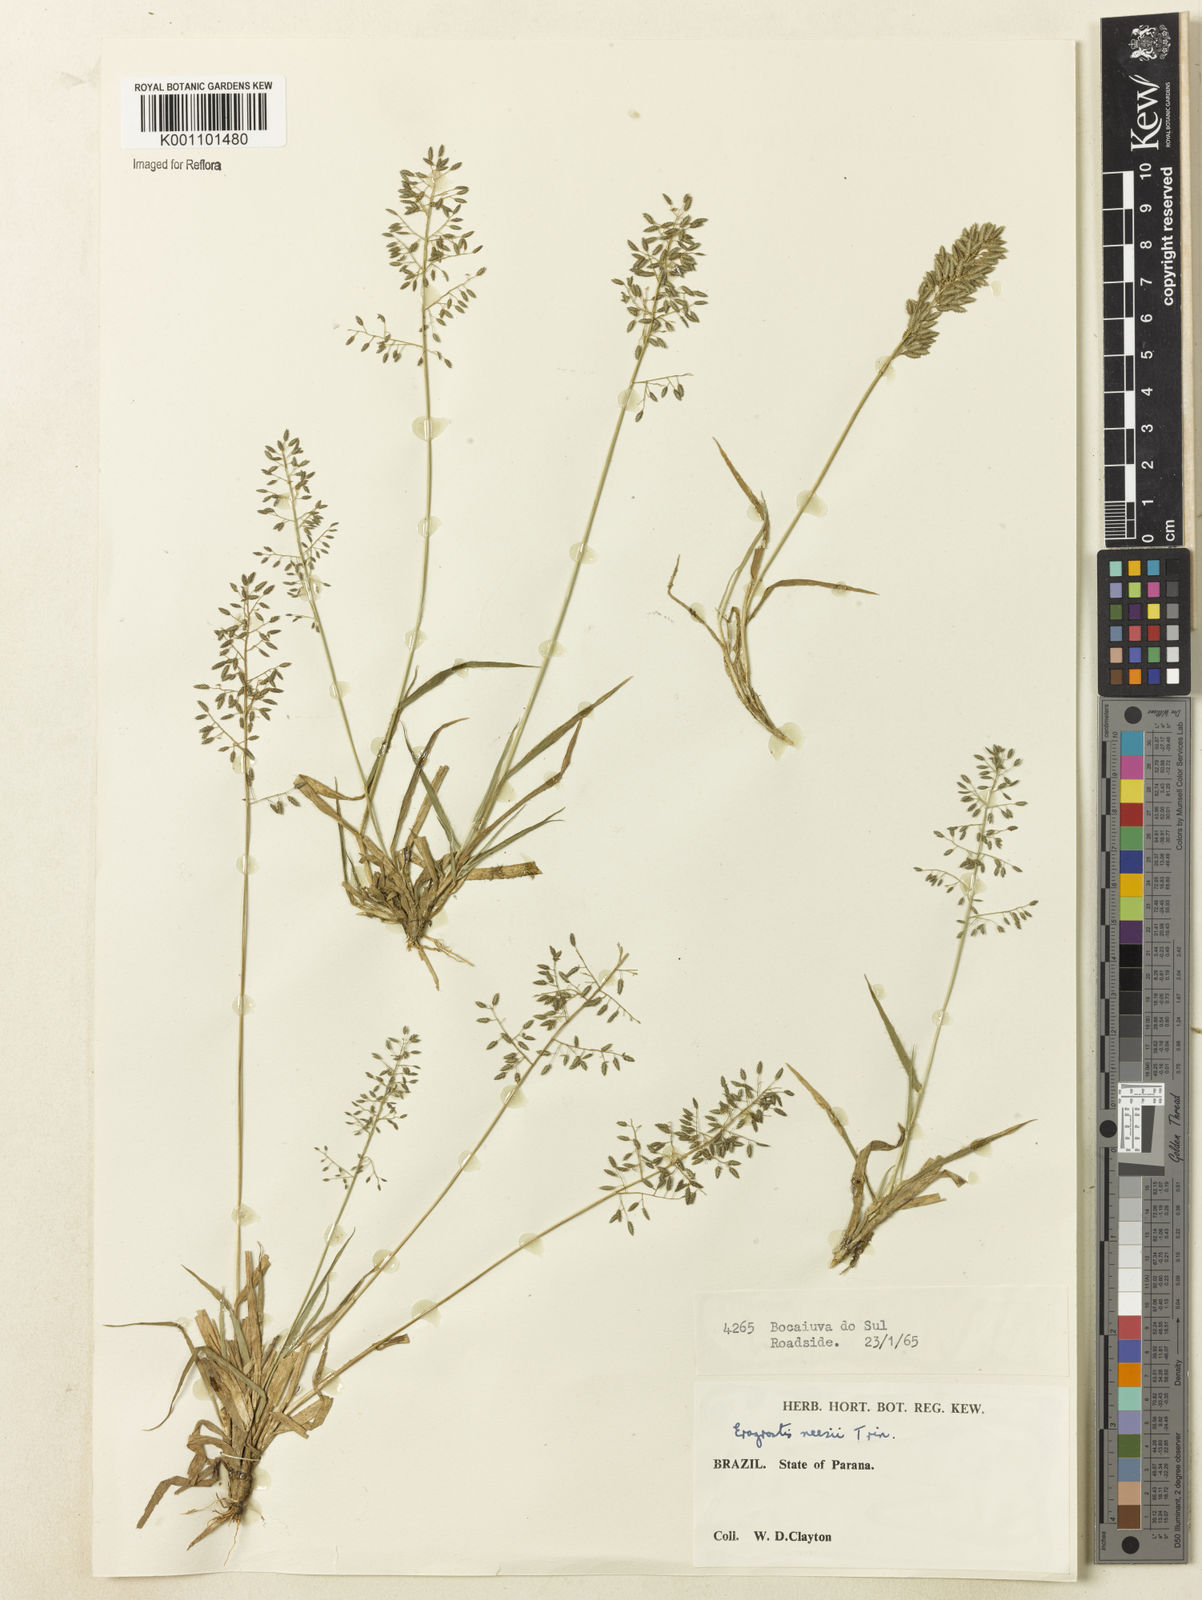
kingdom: Plantae
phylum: Tracheophyta
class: Liliopsida
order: Poales
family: Poaceae
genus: Eragrostis
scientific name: Eragrostis neesii
